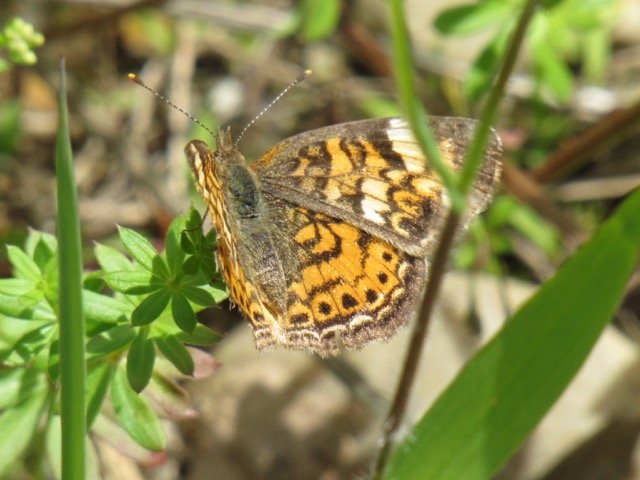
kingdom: Animalia
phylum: Arthropoda
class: Insecta
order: Lepidoptera
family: Nymphalidae
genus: Phyciodes
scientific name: Phyciodes tharos
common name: Pearl Crescent
